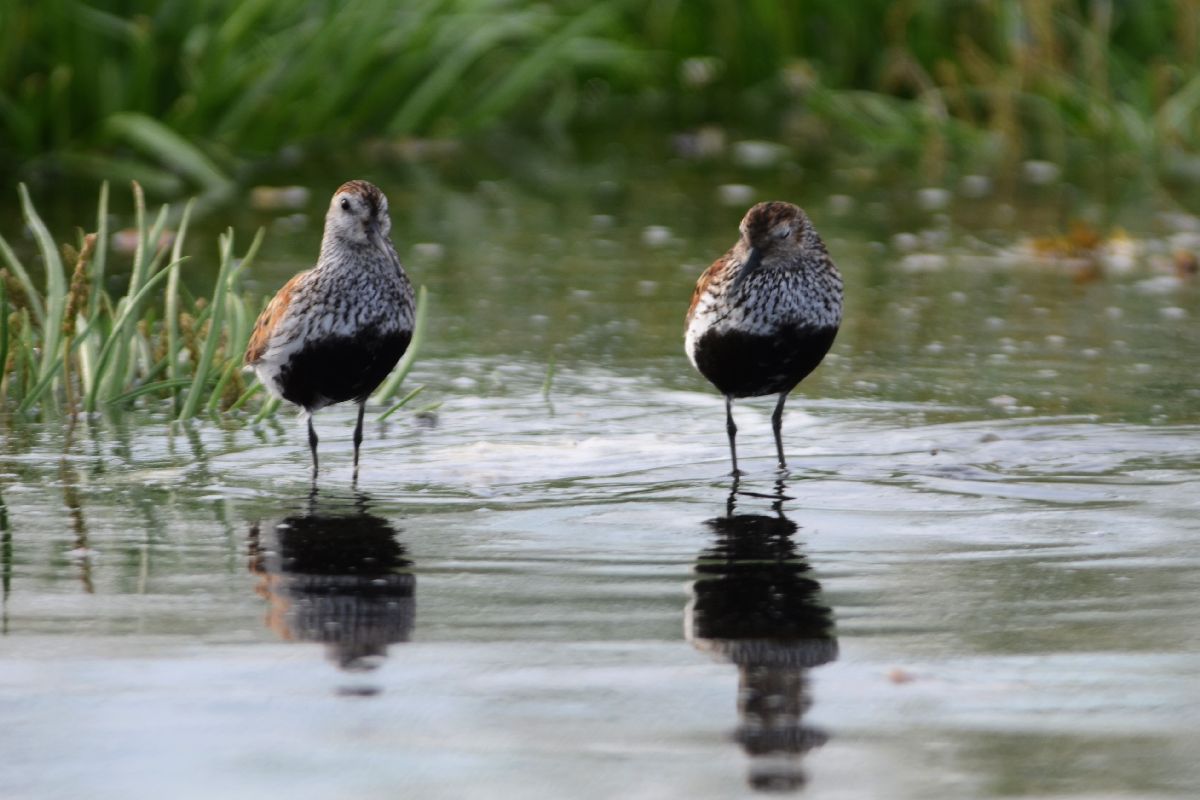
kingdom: Animalia
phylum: Chordata
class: Aves
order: Charadriiformes
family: Scolopacidae
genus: Calidris
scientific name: Calidris alpina
